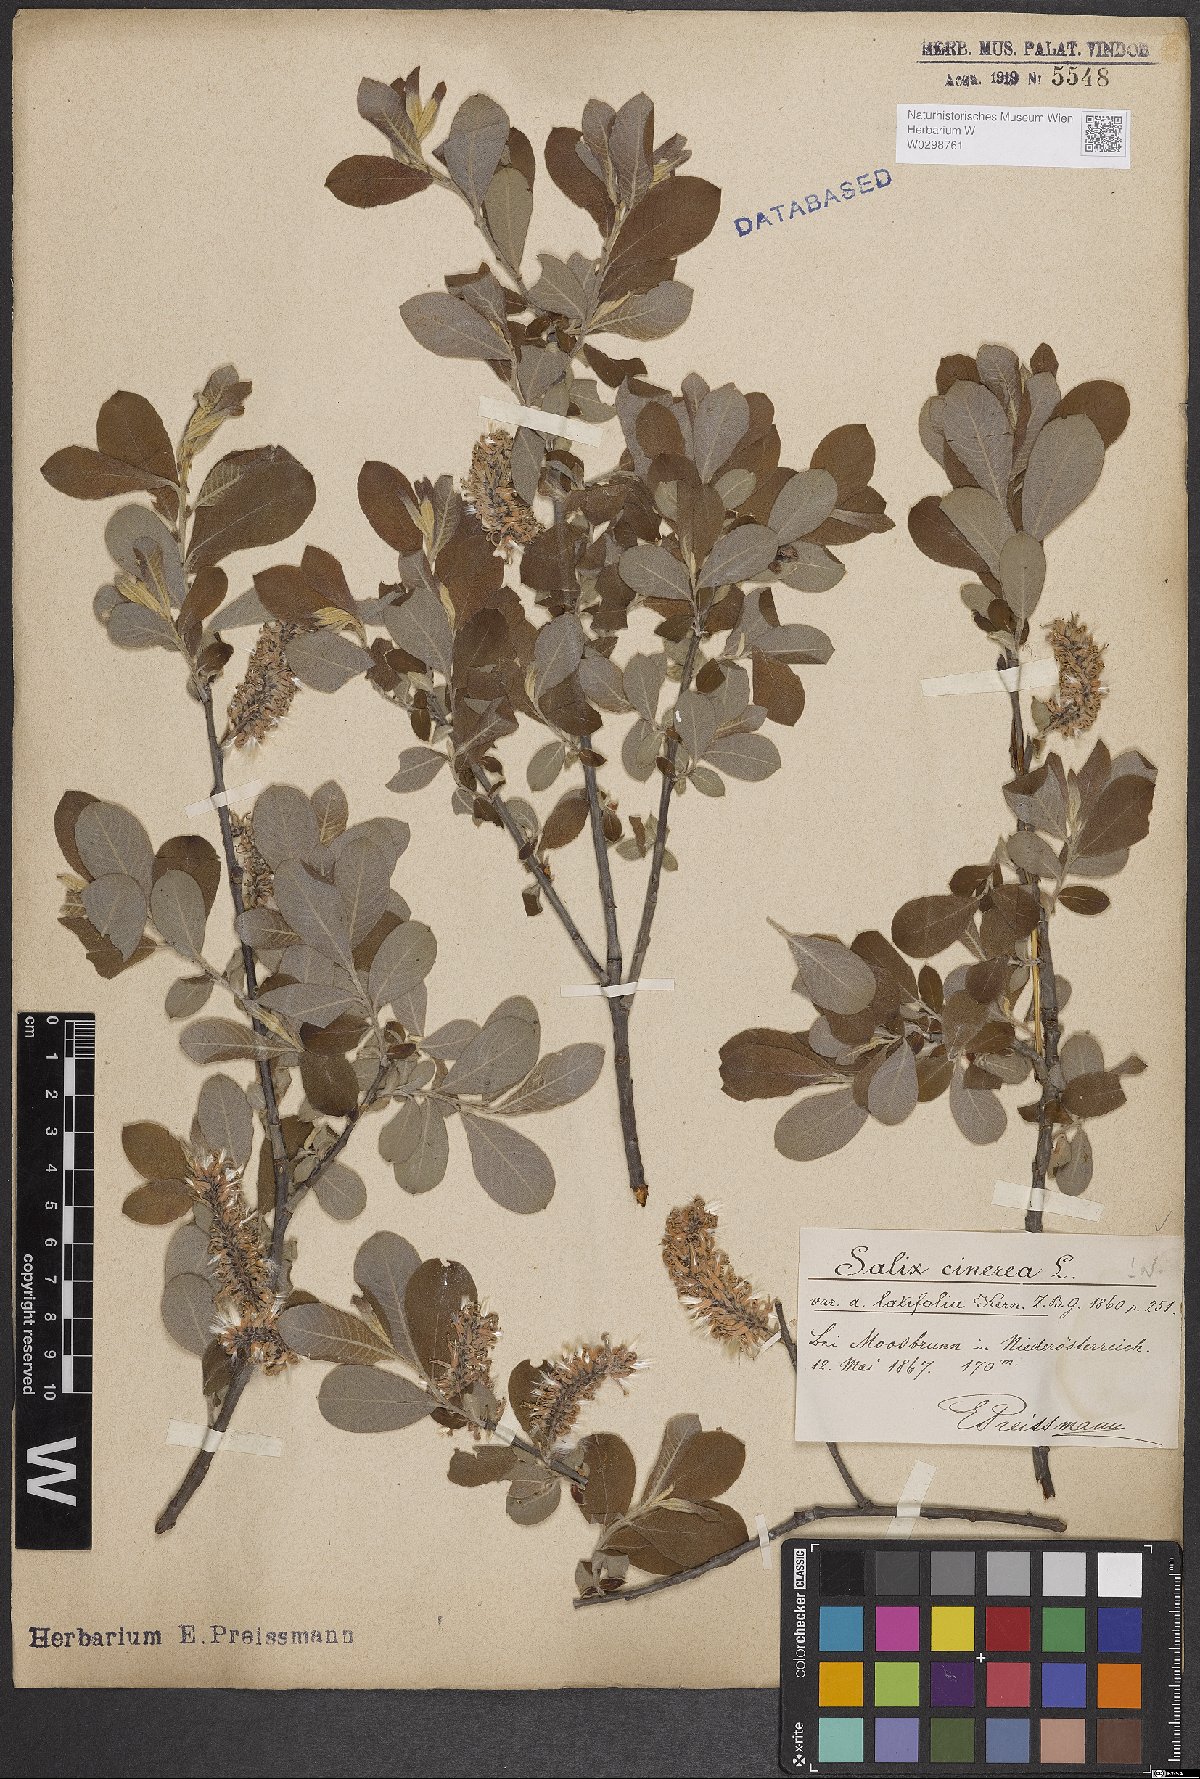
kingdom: Plantae
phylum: Tracheophyta
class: Magnoliopsida
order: Malpighiales
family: Salicaceae
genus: Salix
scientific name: Salix cinerea
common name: Common sallow
